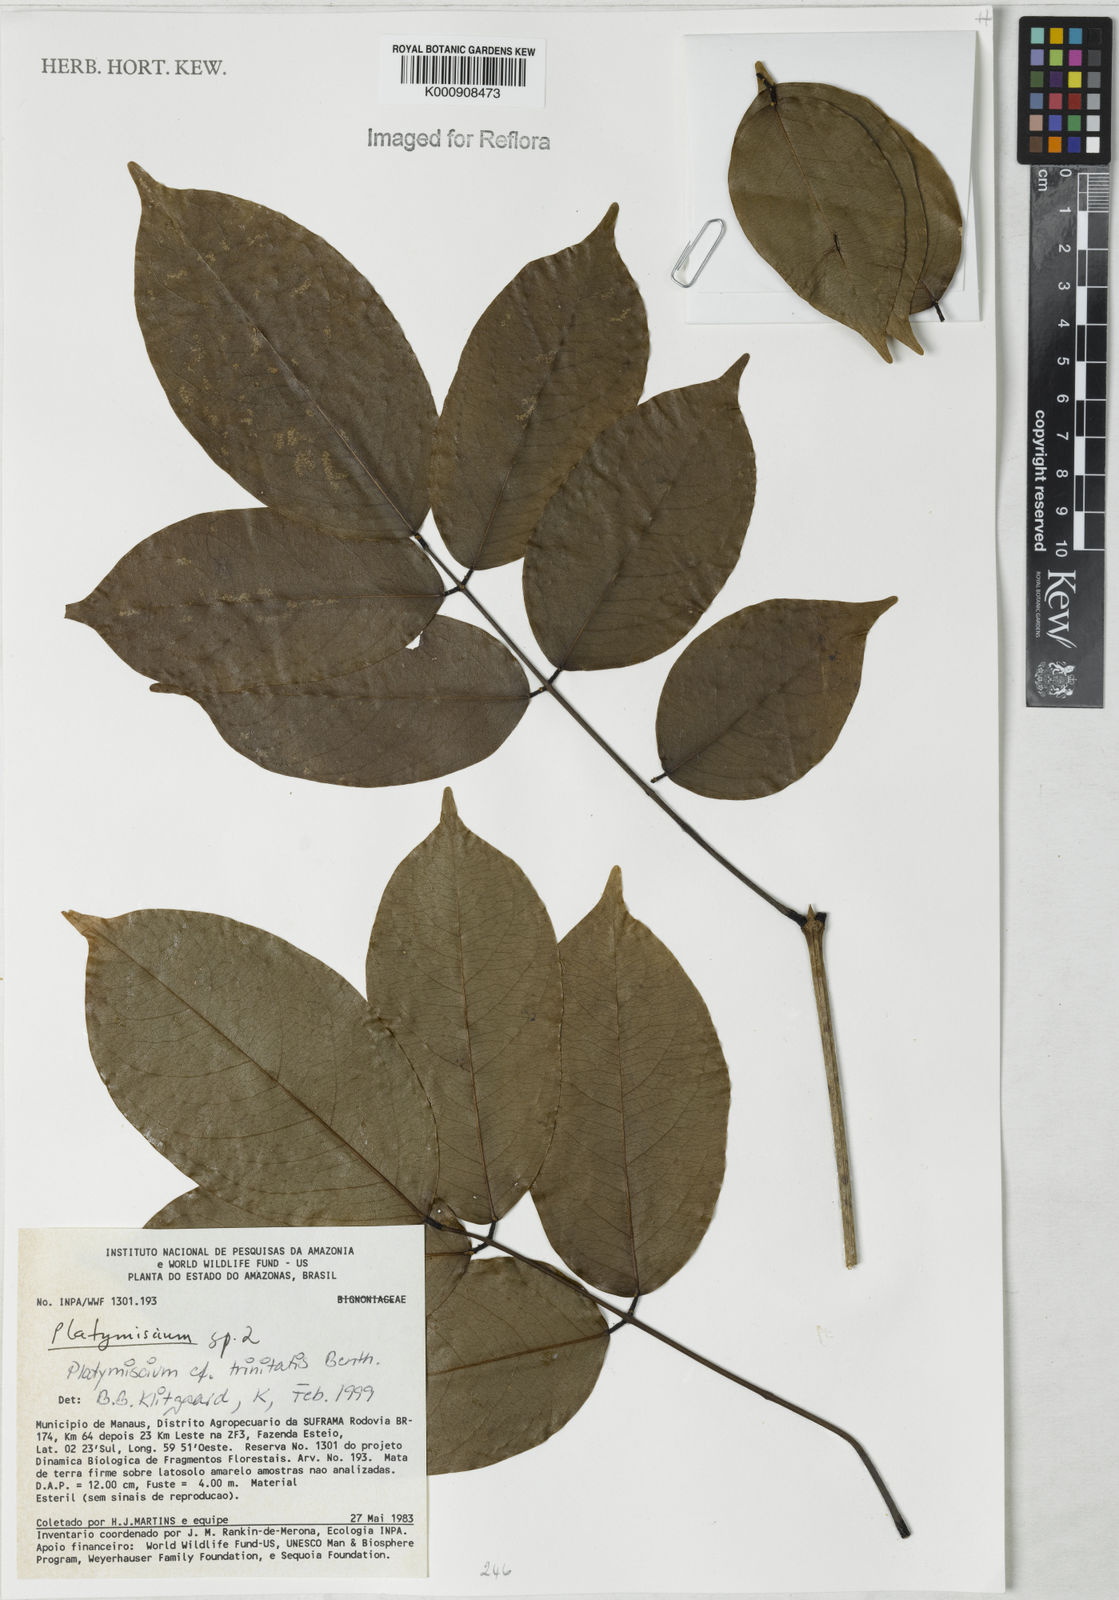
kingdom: Plantae
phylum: Tracheophyta
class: Magnoliopsida
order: Fabales
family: Fabaceae
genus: Platymiscium
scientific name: Platymiscium trinitatis
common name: Trinidad macawood
